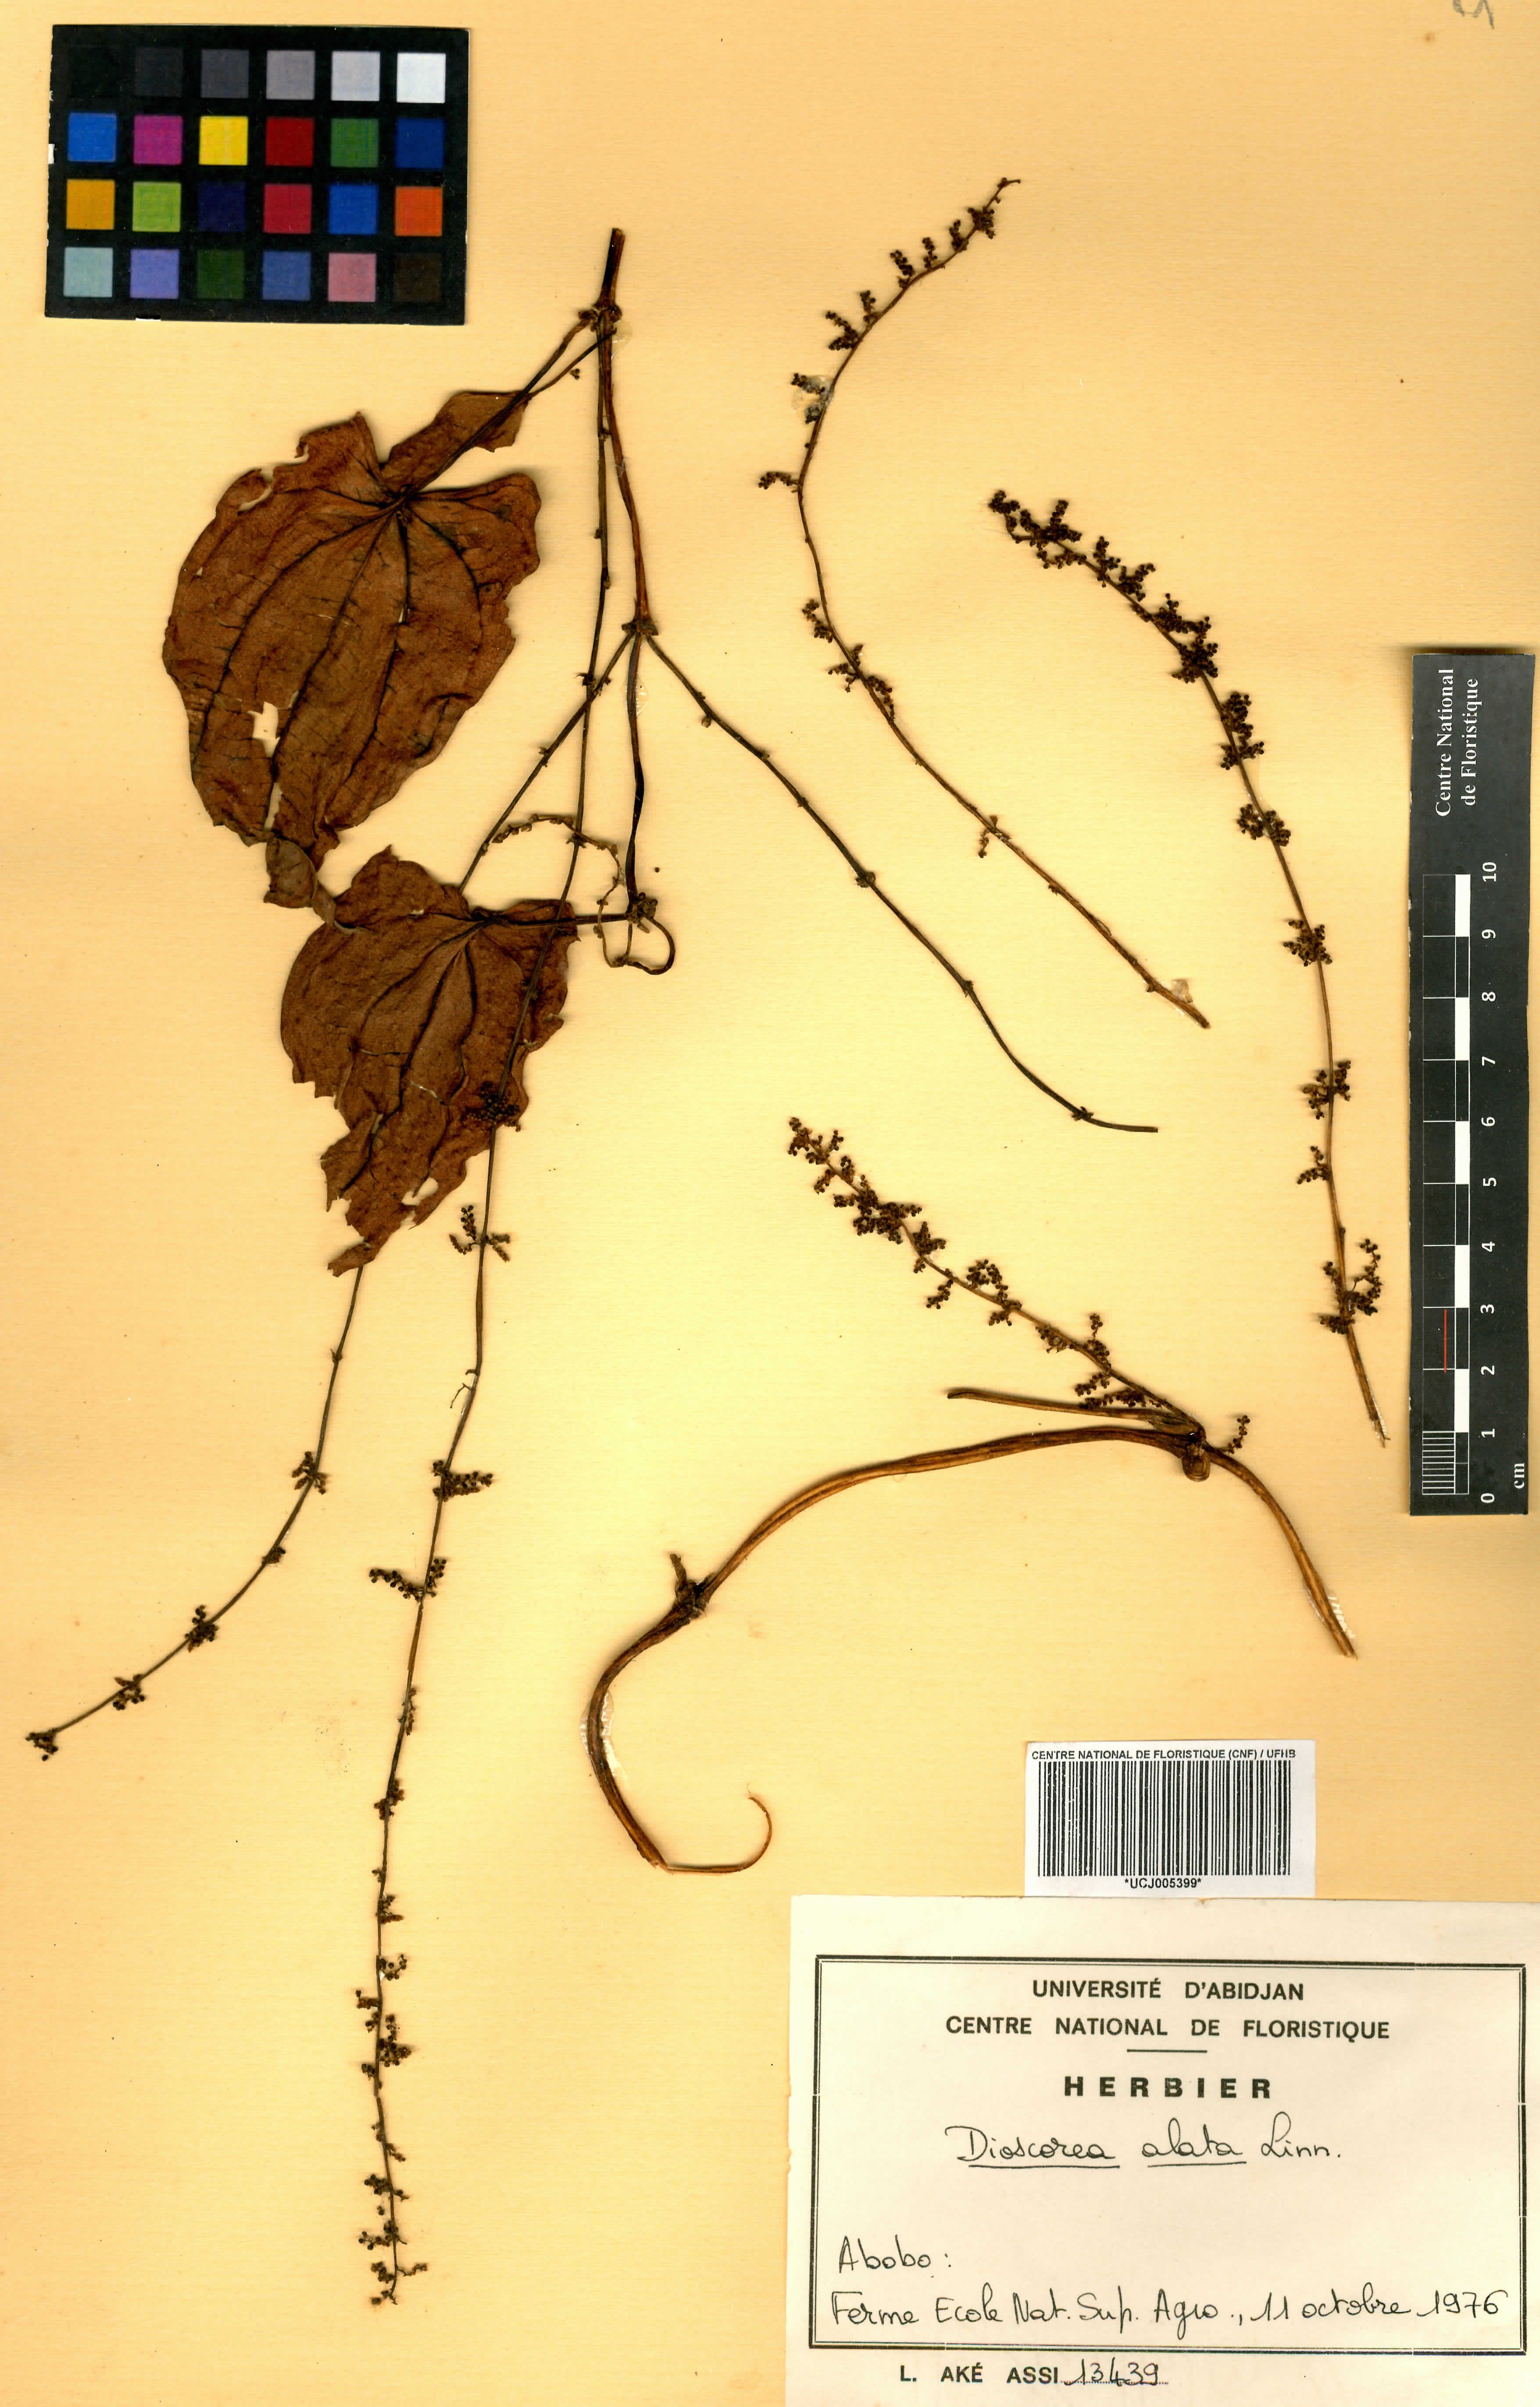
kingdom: Plantae
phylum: Tracheophyta
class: Liliopsida
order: Dioscoreales
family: Dioscoreaceae
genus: Dioscorea
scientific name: Dioscorea alata
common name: Water yam
